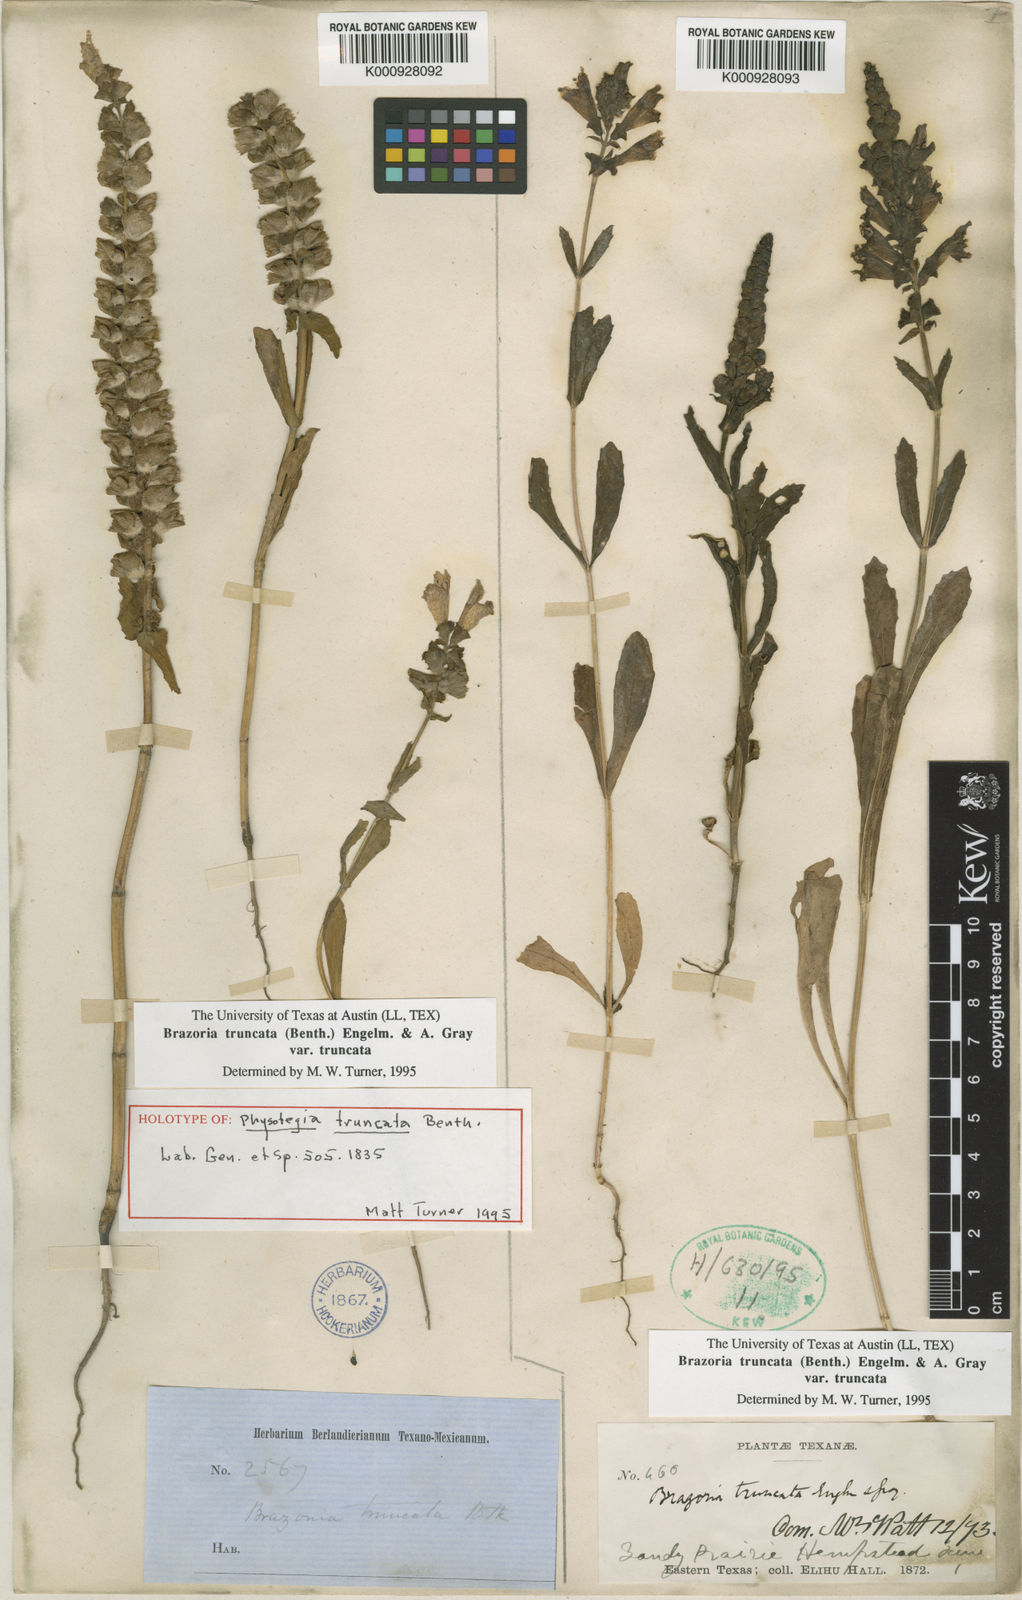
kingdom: Plantae
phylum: Tracheophyta
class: Magnoliopsida
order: Lamiales
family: Lamiaceae
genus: Brazoria
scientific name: Brazoria truncata
